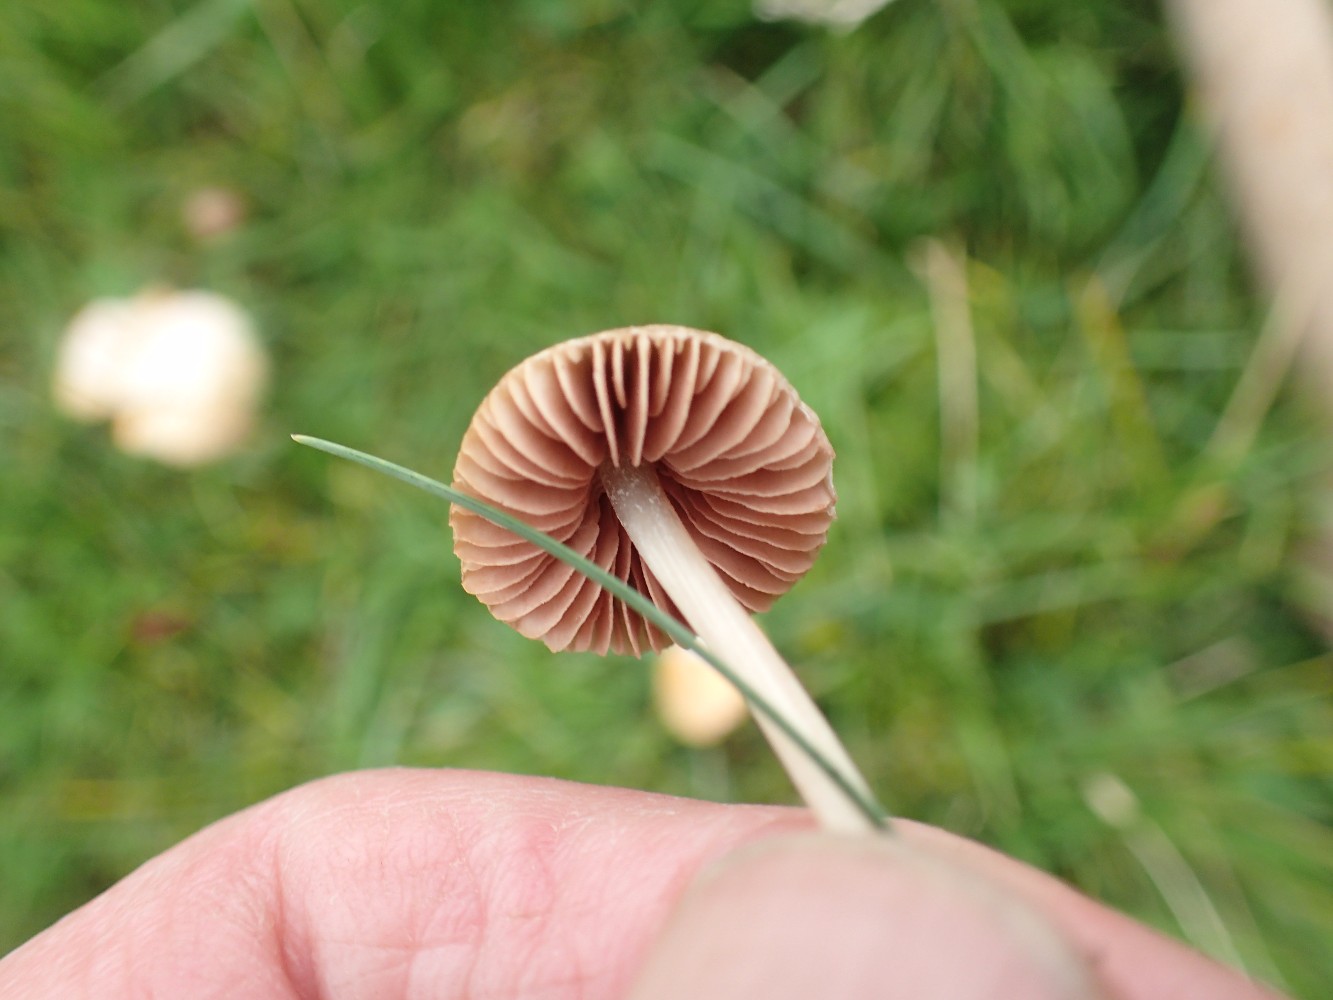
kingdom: Fungi
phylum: Basidiomycota
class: Agaricomycetes
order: Agaricales
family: Entolomataceae
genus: Entoloma
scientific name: Entoloma
